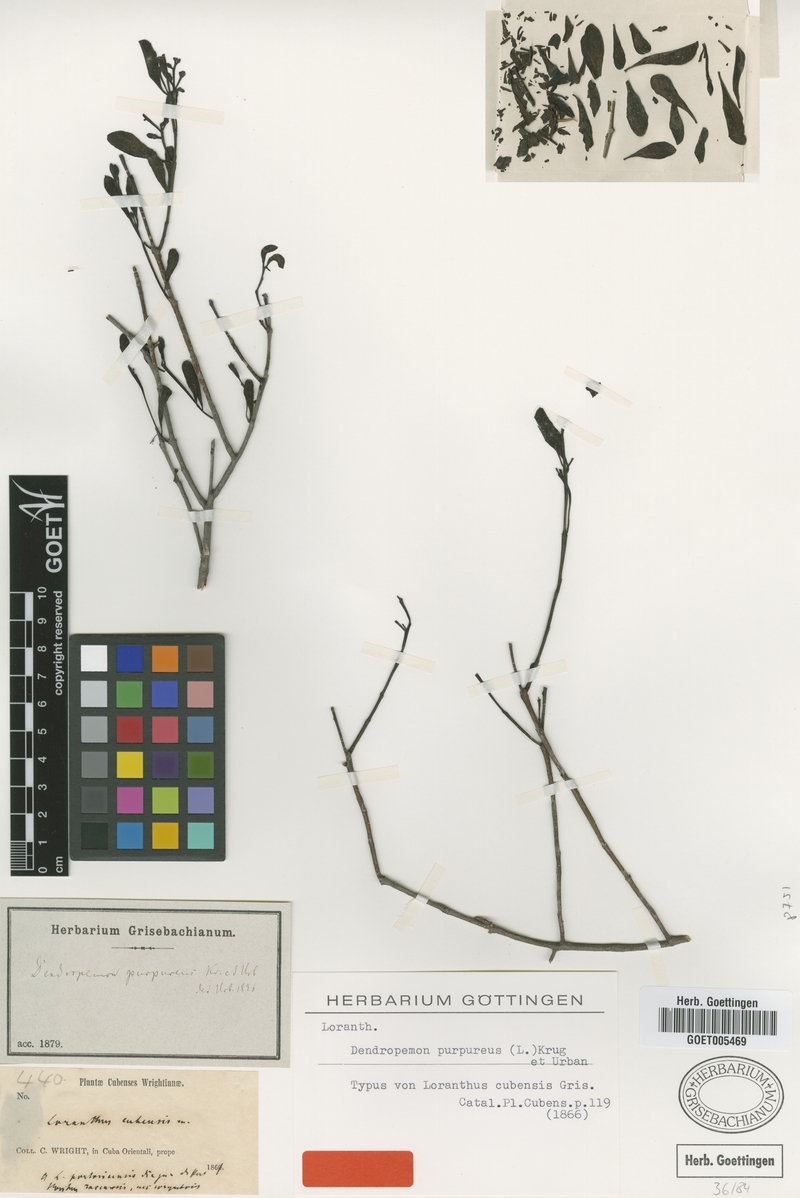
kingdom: Plantae
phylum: Tracheophyta
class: Magnoliopsida
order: Santalales
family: Loranthaceae
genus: Dendropemon
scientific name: Dendropemon purpureus
